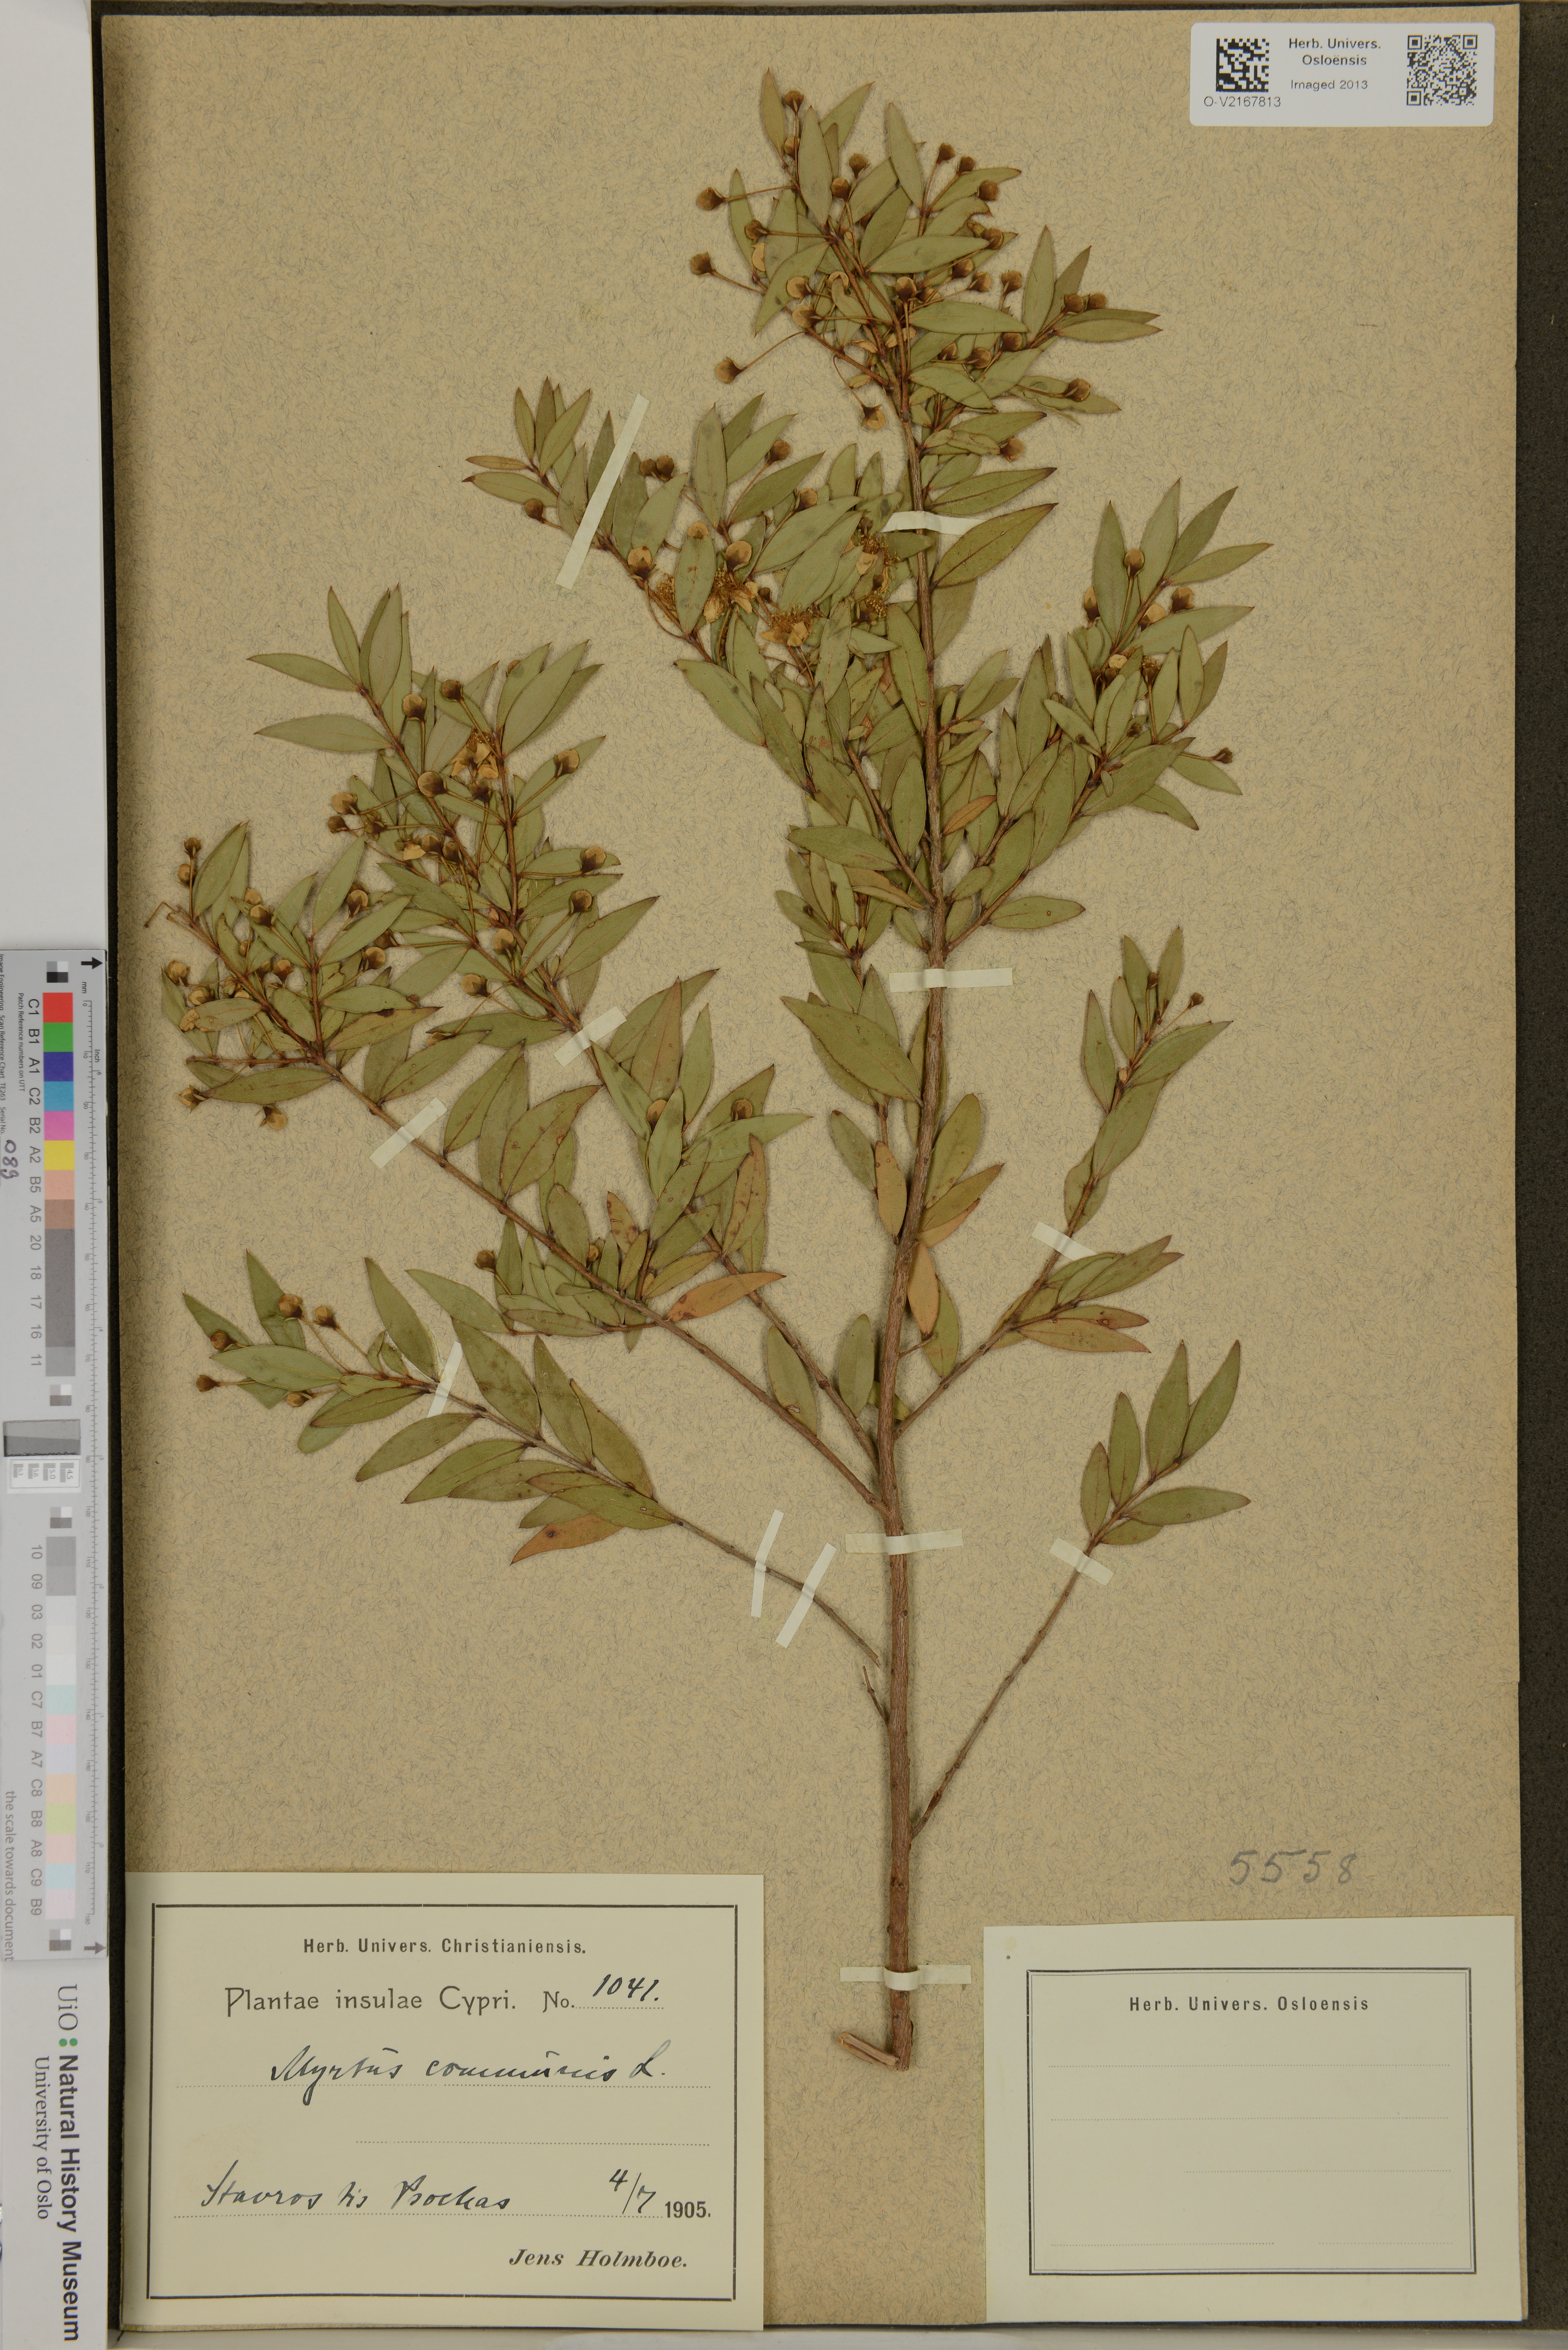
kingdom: Plantae
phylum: Tracheophyta
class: Magnoliopsida
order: Myrtales
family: Myrtaceae
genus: Myrtus
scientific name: Myrtus communis
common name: Myrtle
